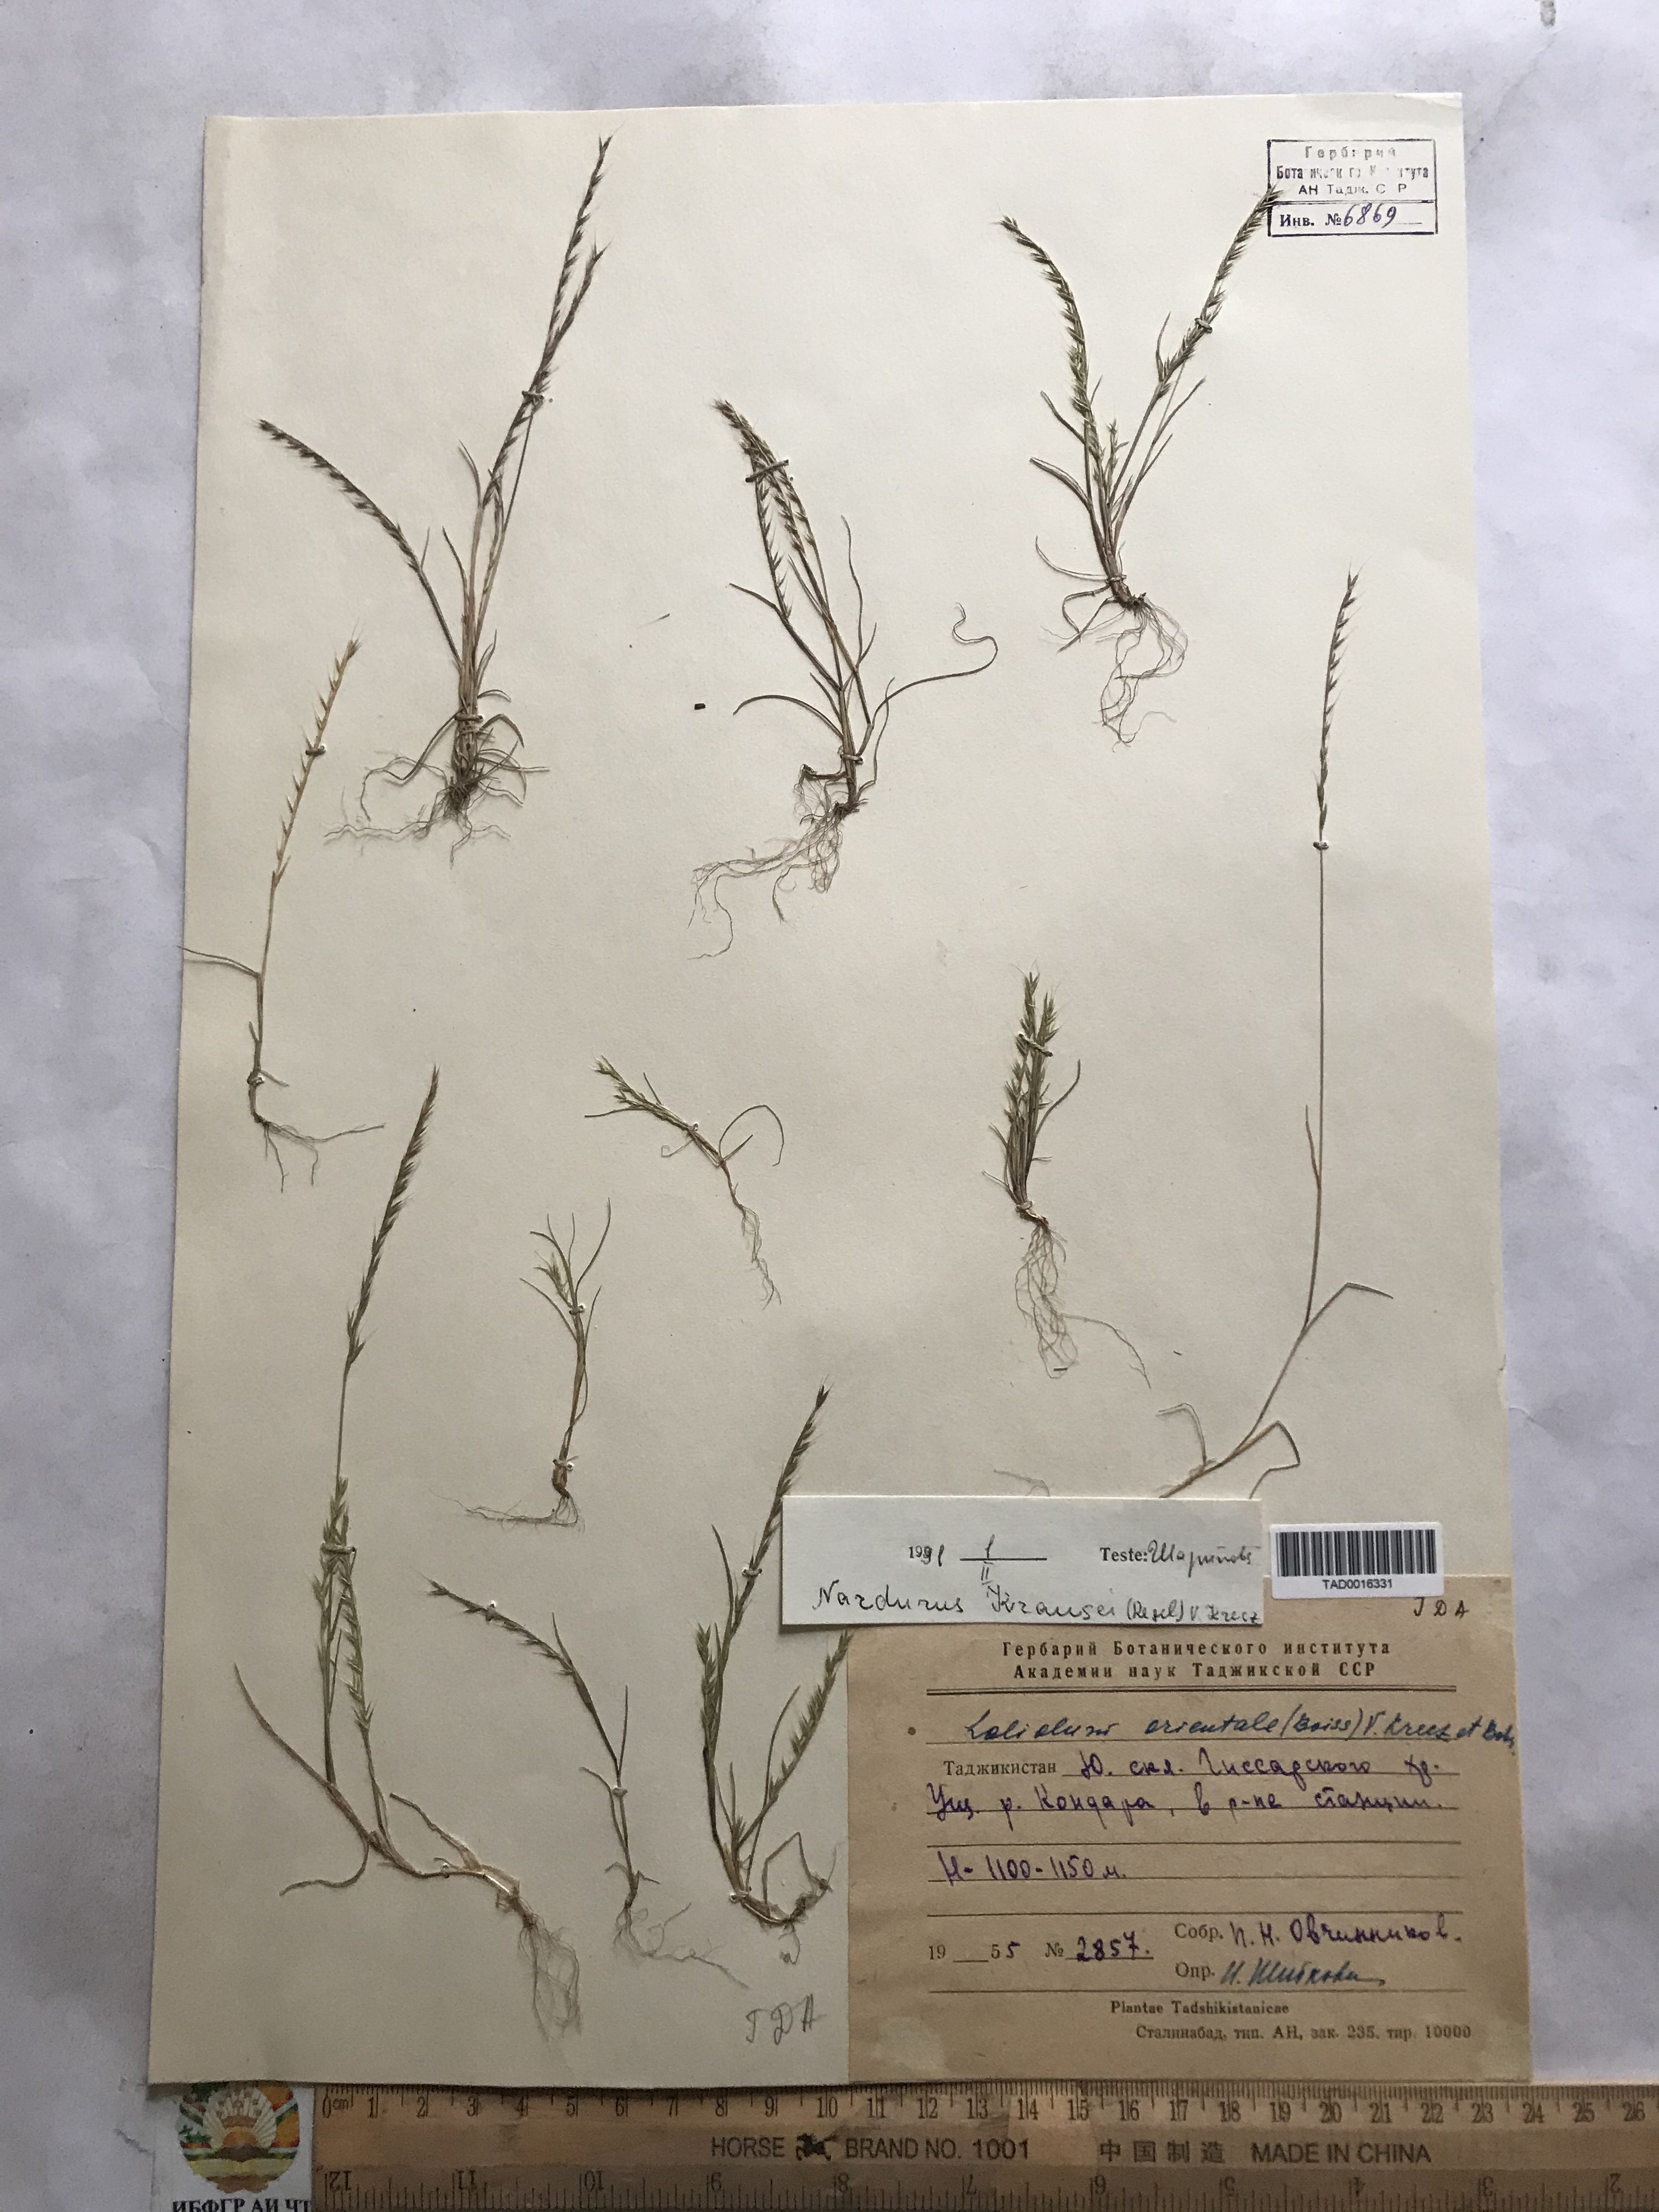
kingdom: Plantae
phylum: Tracheophyta
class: Liliopsida
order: Poales
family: Poaceae
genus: Festuca
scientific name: Festuca maritima
